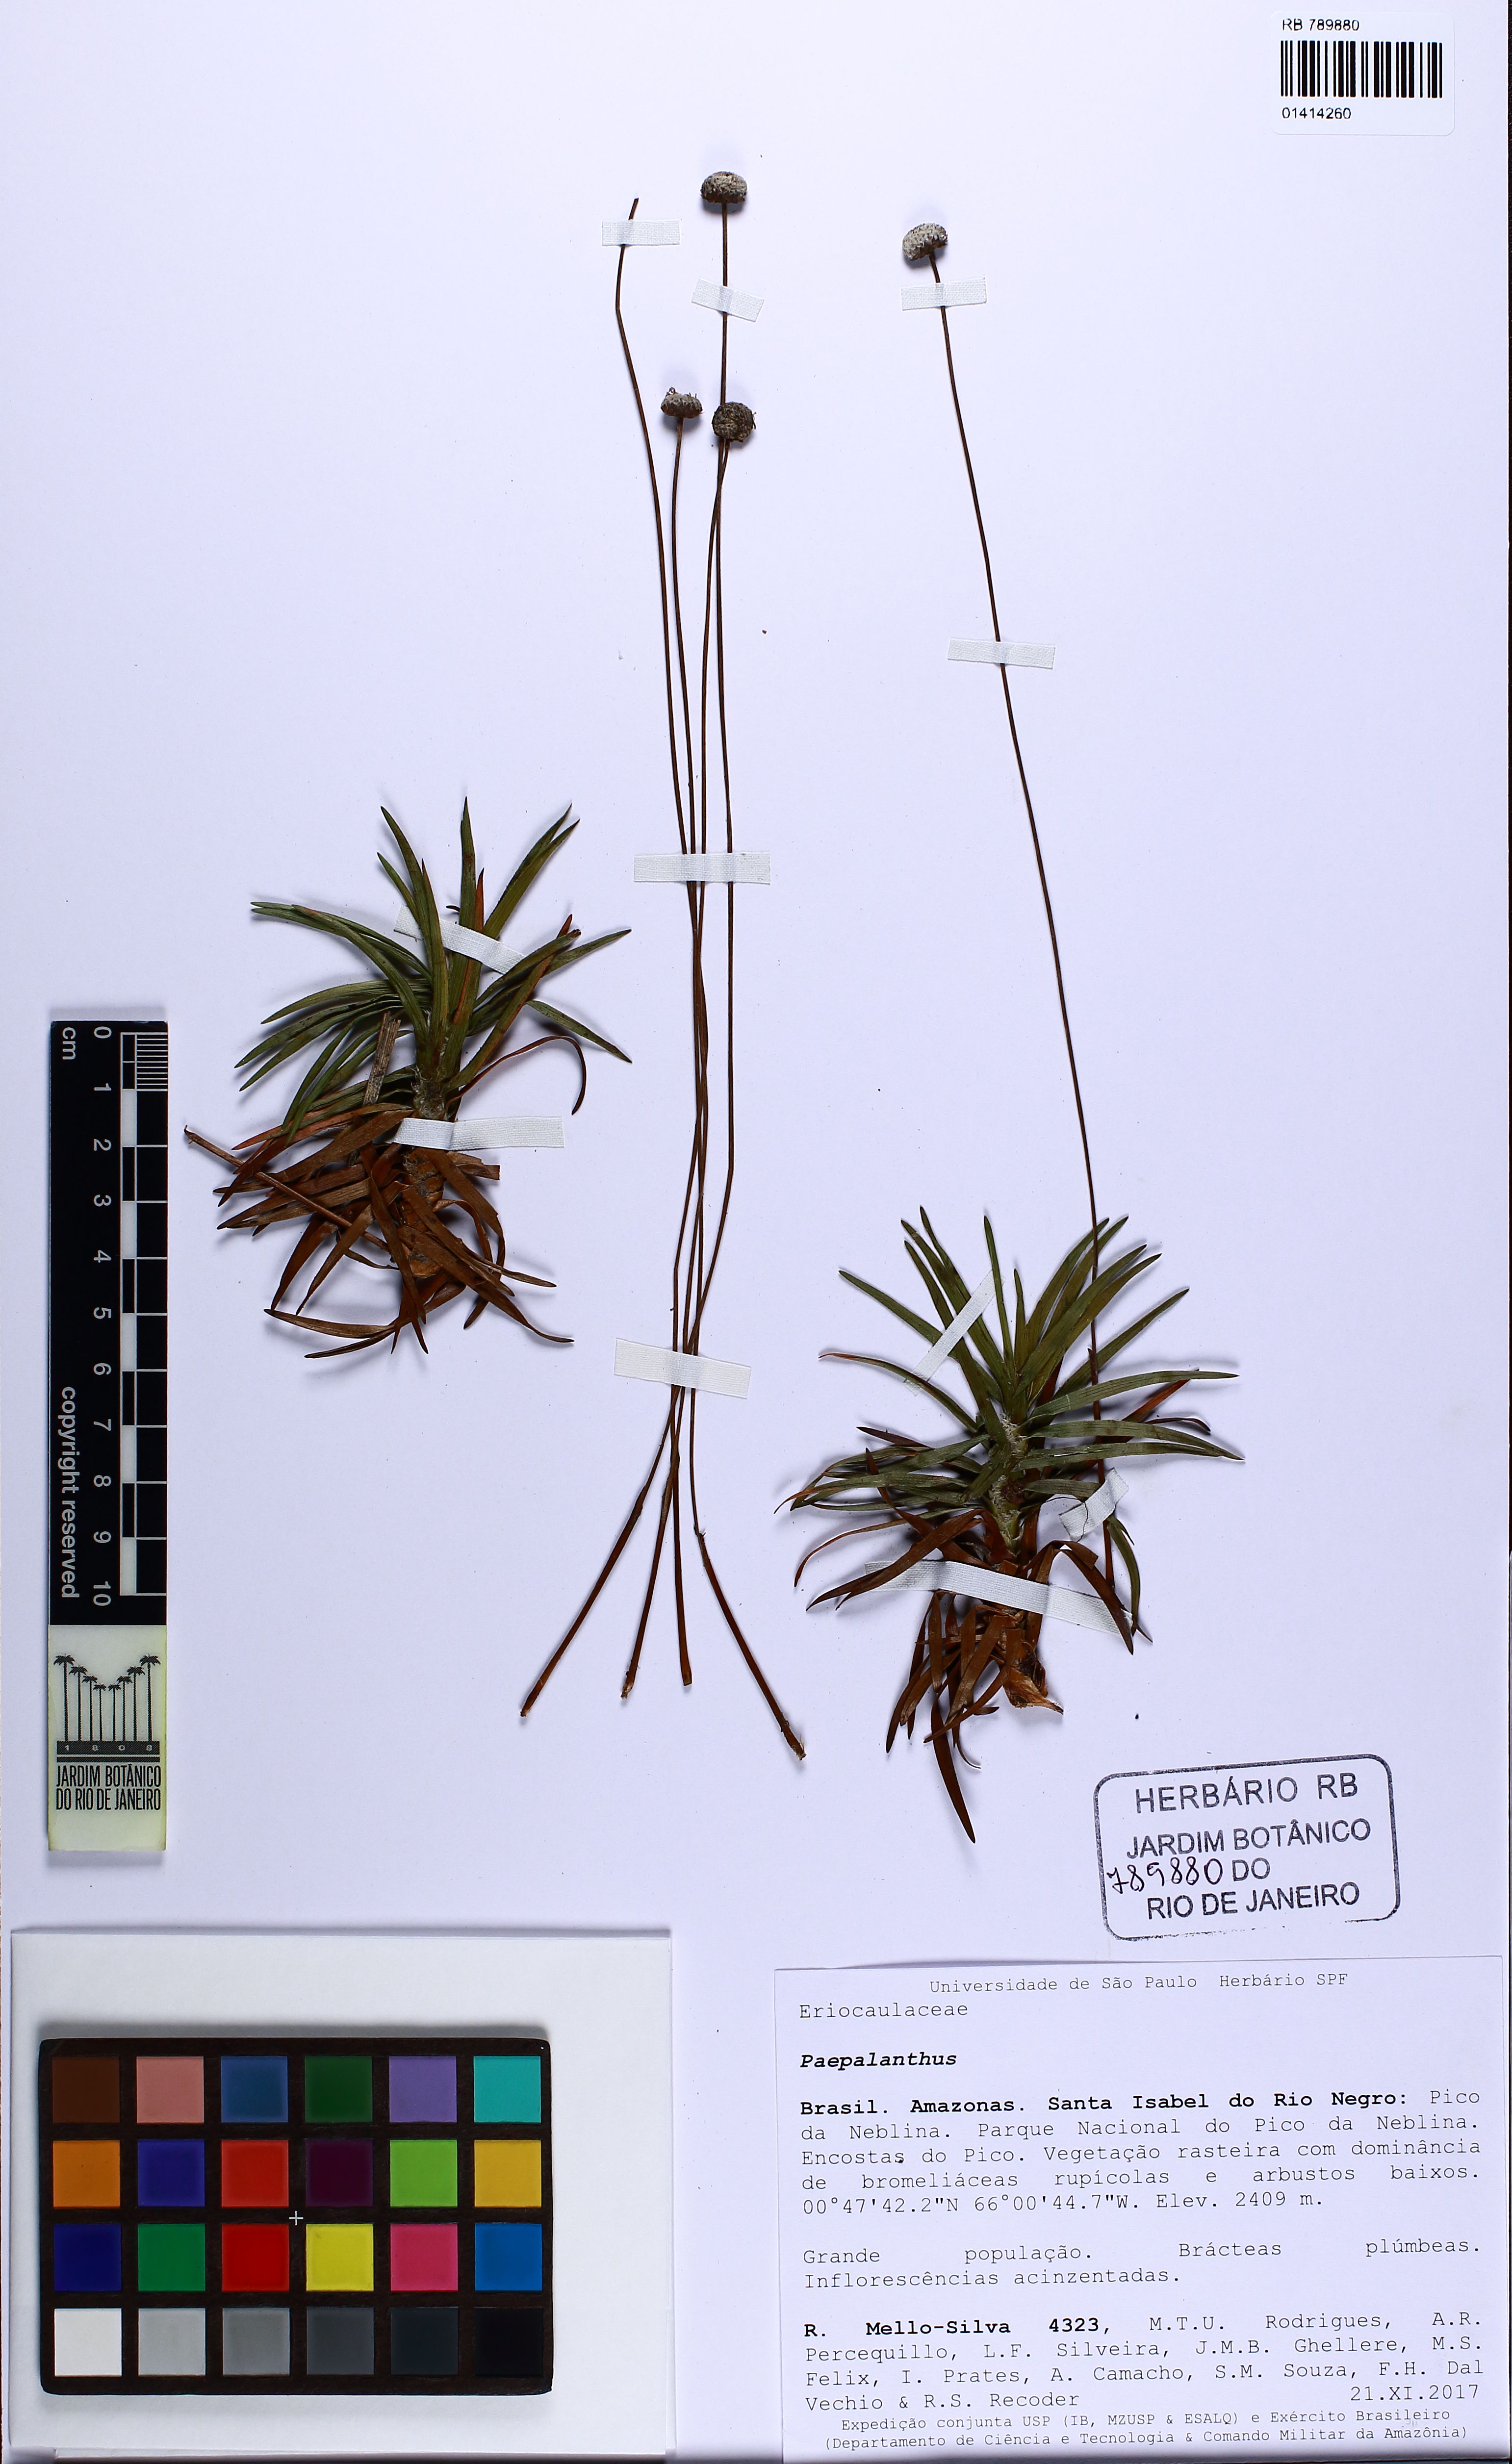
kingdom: Plantae
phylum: Tracheophyta
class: Liliopsida
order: Poales
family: Eriocaulaceae
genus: Paepalanthus
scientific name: Paepalanthus
